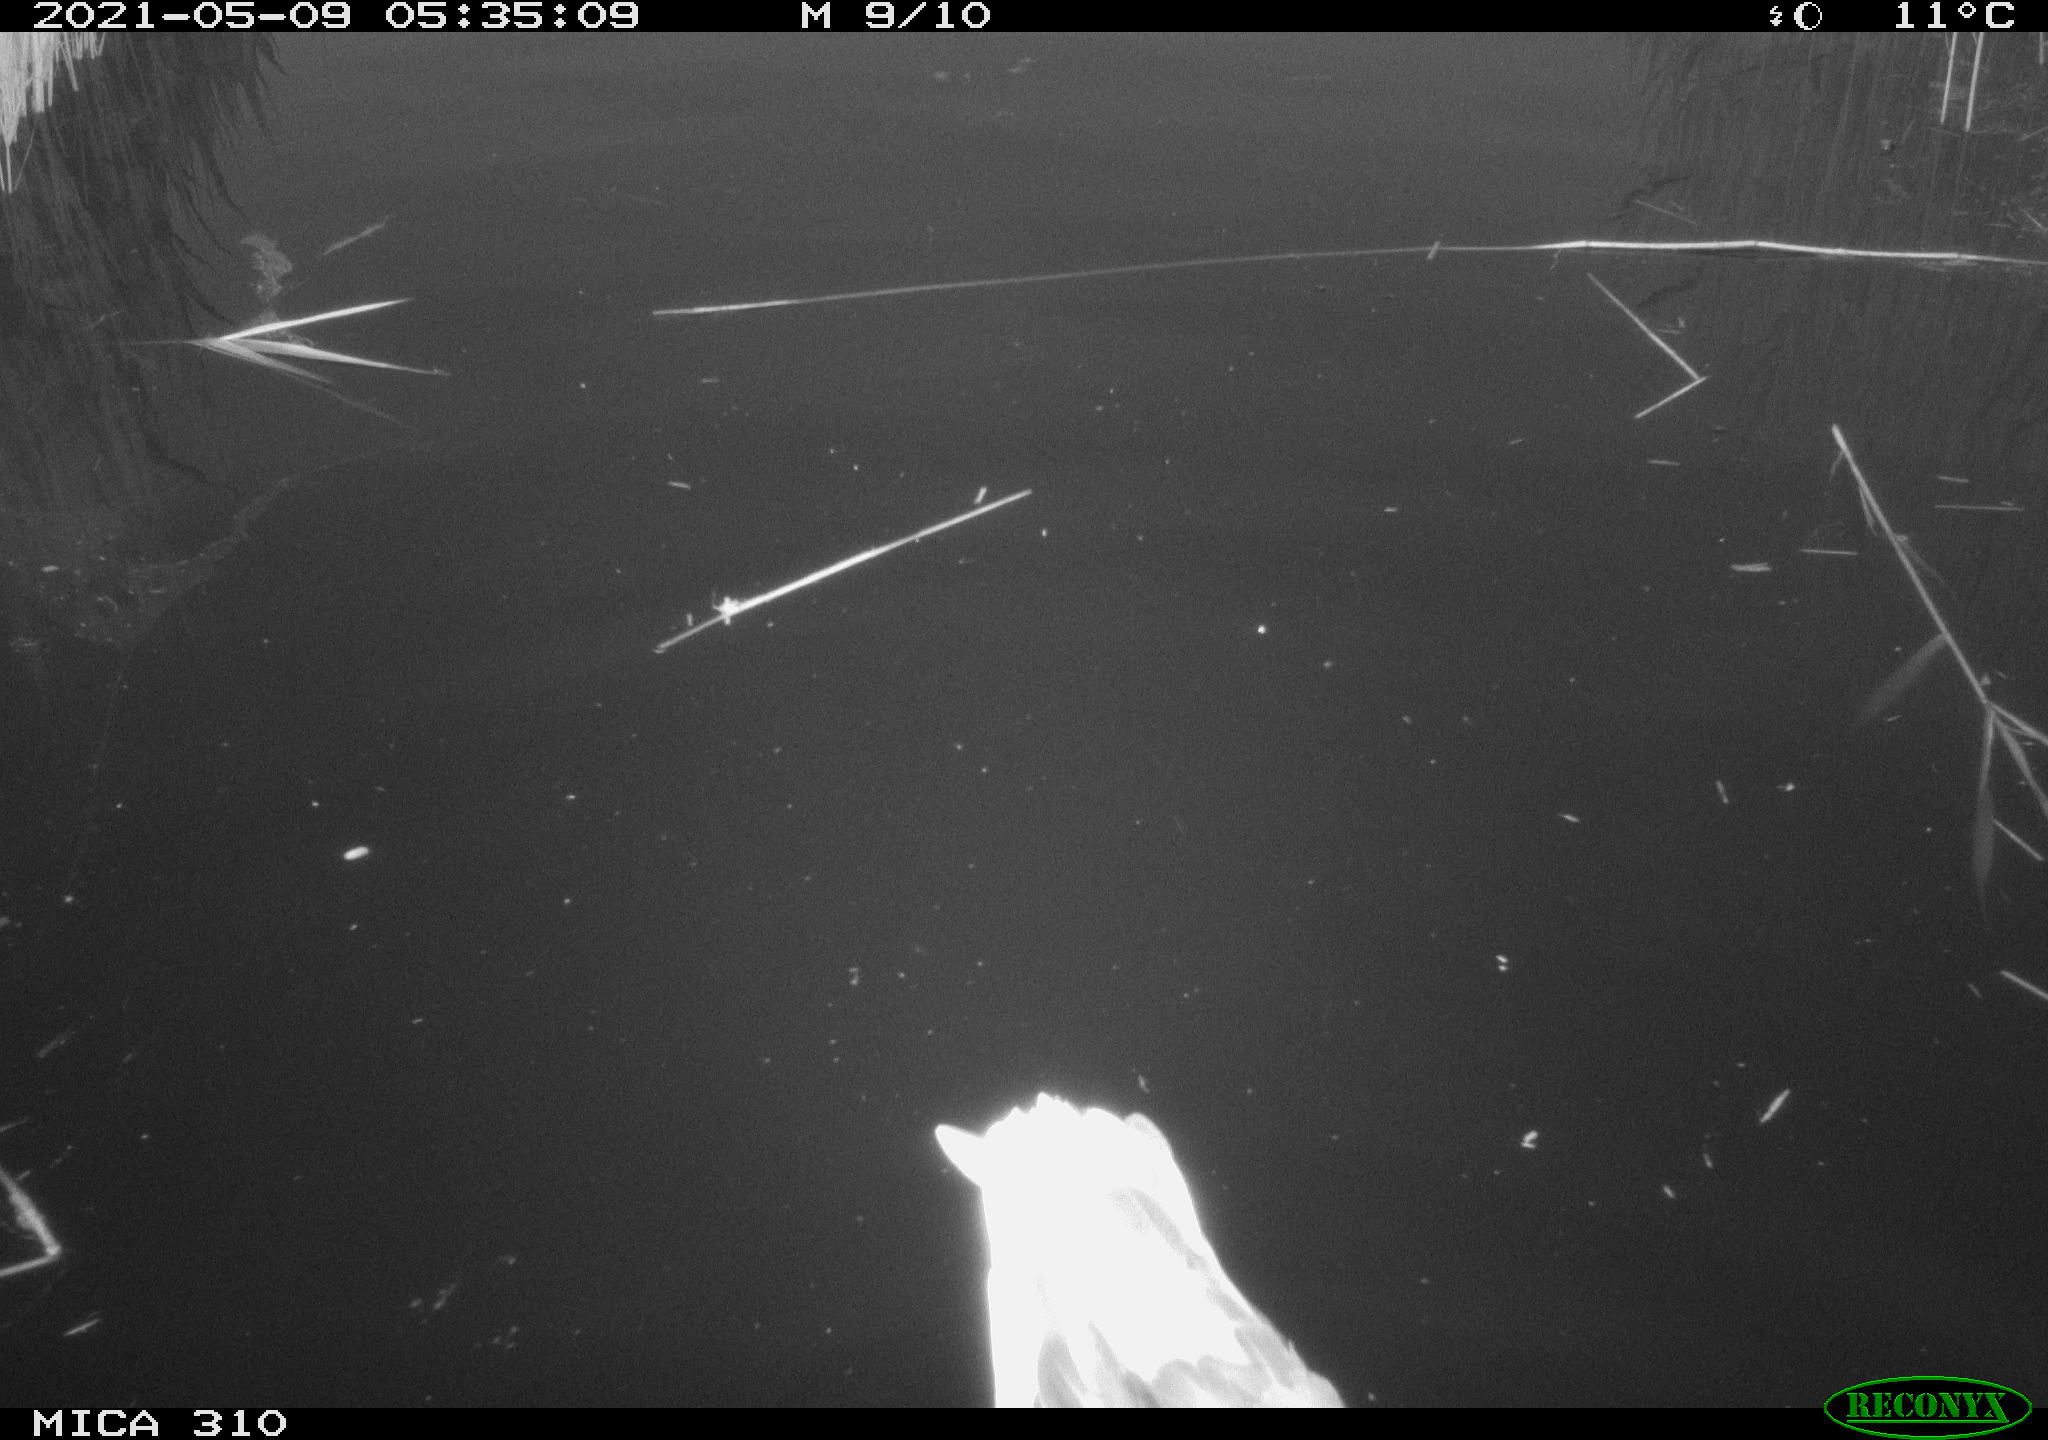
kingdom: Animalia
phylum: Chordata
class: Aves
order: Anseriformes
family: Anatidae
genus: Anas
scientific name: Anas platyrhynchos
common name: Mallard
